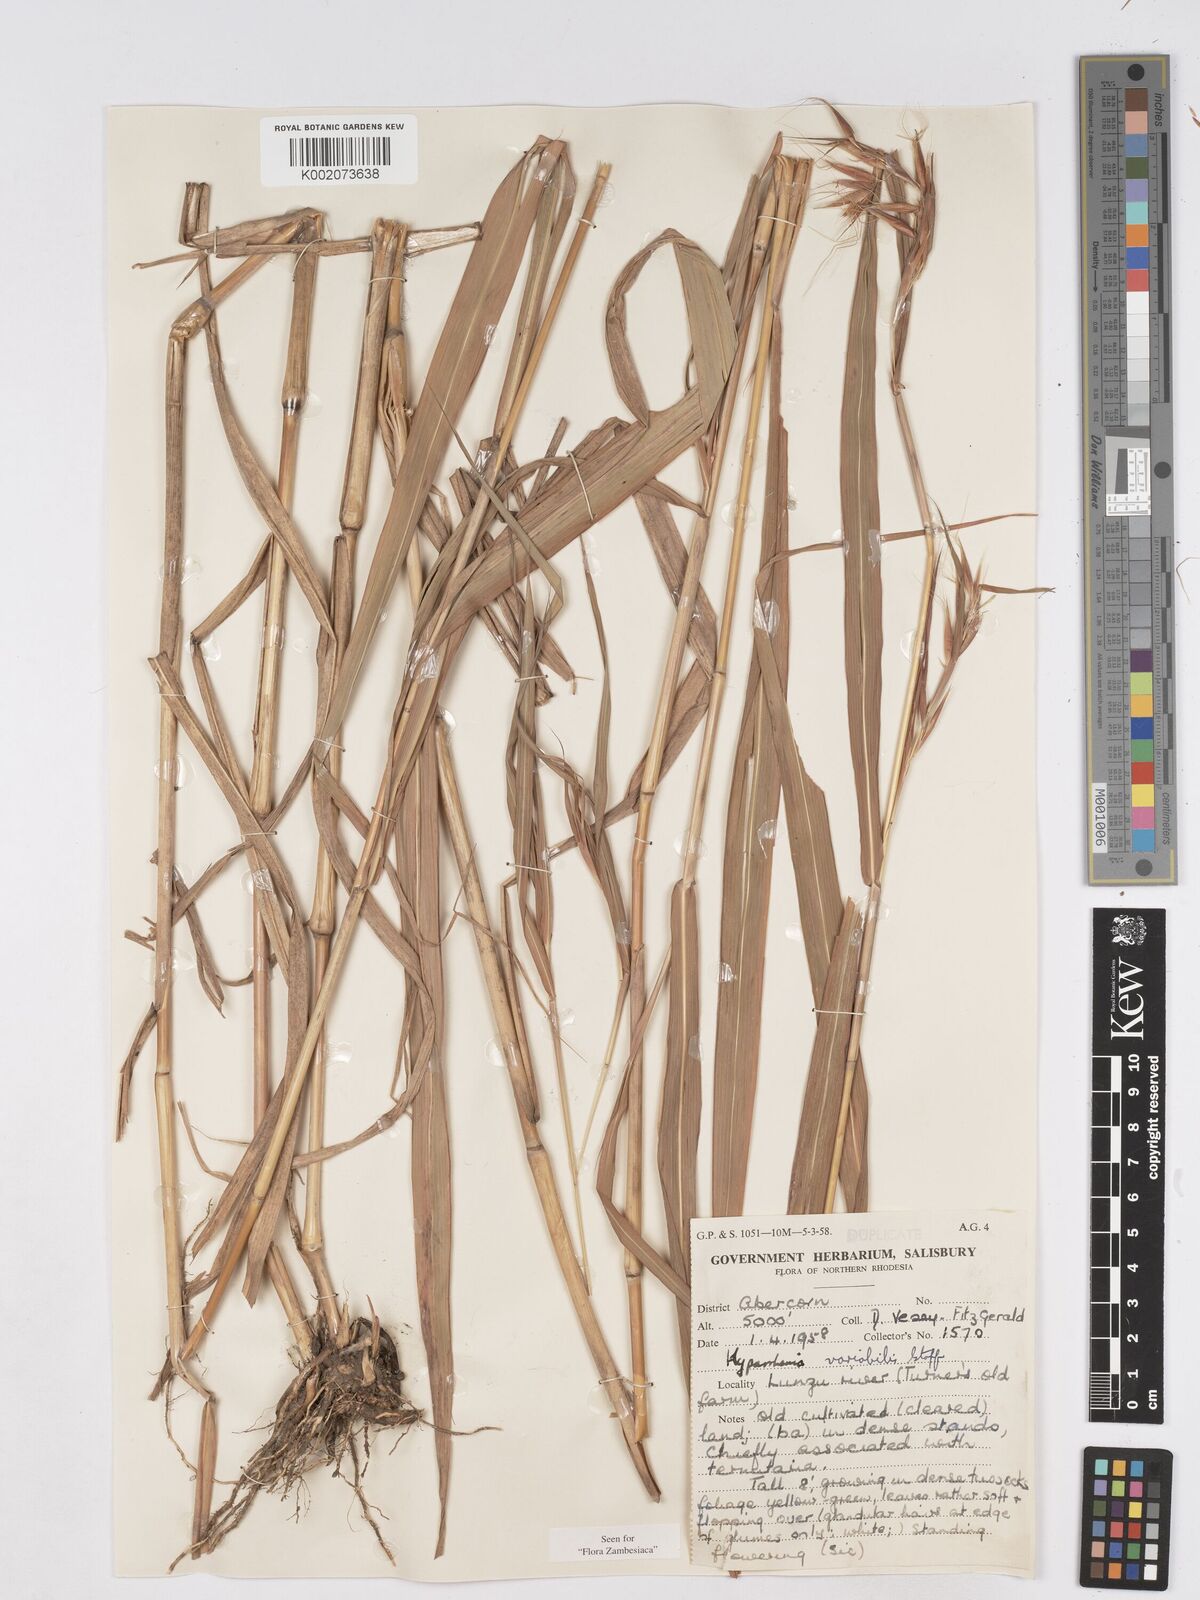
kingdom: Plantae
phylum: Tracheophyta
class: Liliopsida
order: Poales
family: Poaceae
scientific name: Poaceae
